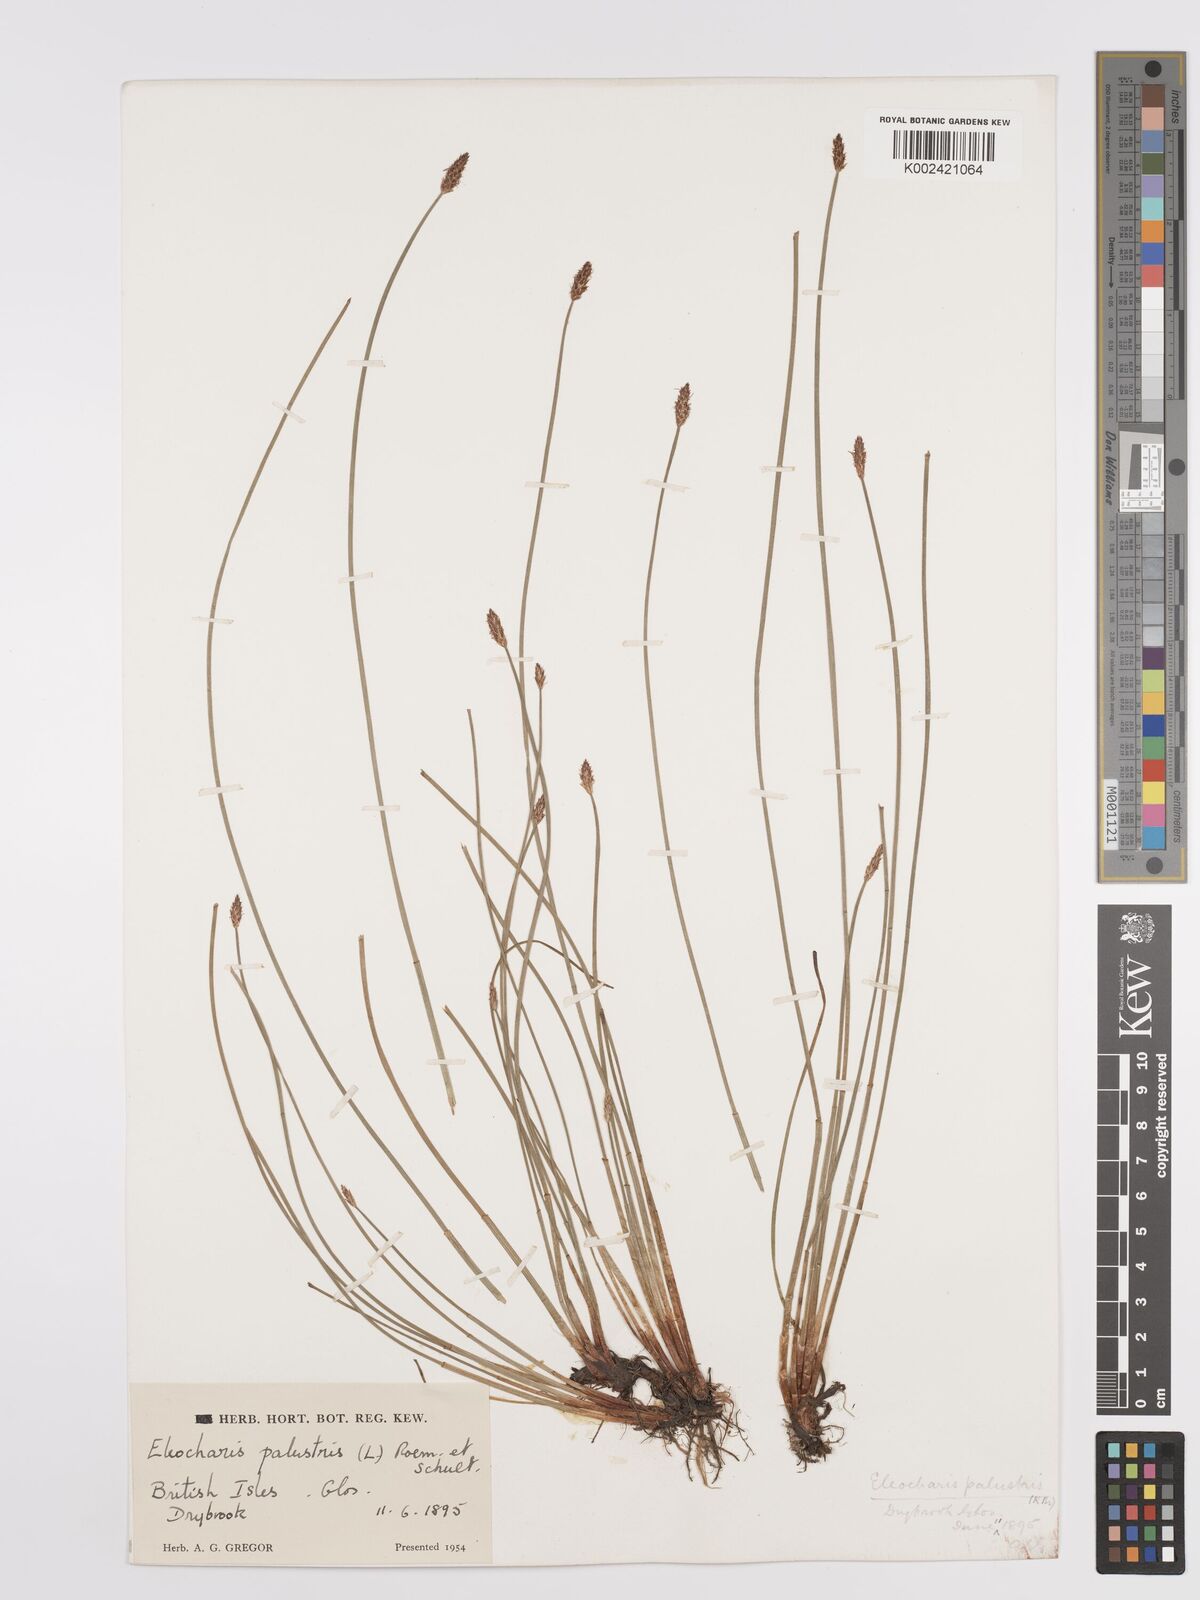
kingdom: Plantae
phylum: Tracheophyta
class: Liliopsida
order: Poales
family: Cyperaceae
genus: Eleocharis
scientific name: Eleocharis palustris
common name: Common spike-rush
